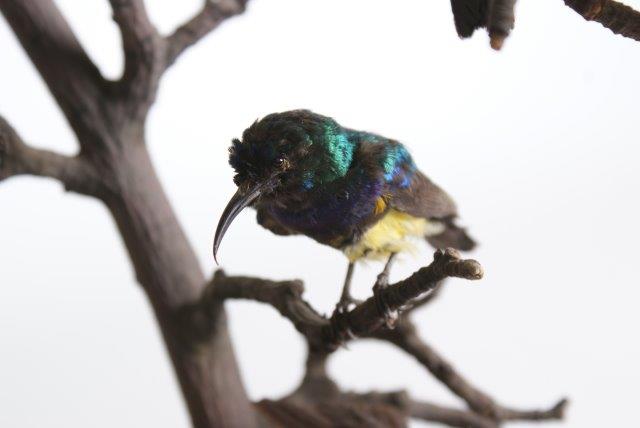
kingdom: Animalia
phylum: Chordata
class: Aves
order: Apodiformes
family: Trochilidae
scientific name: Trochilidae
